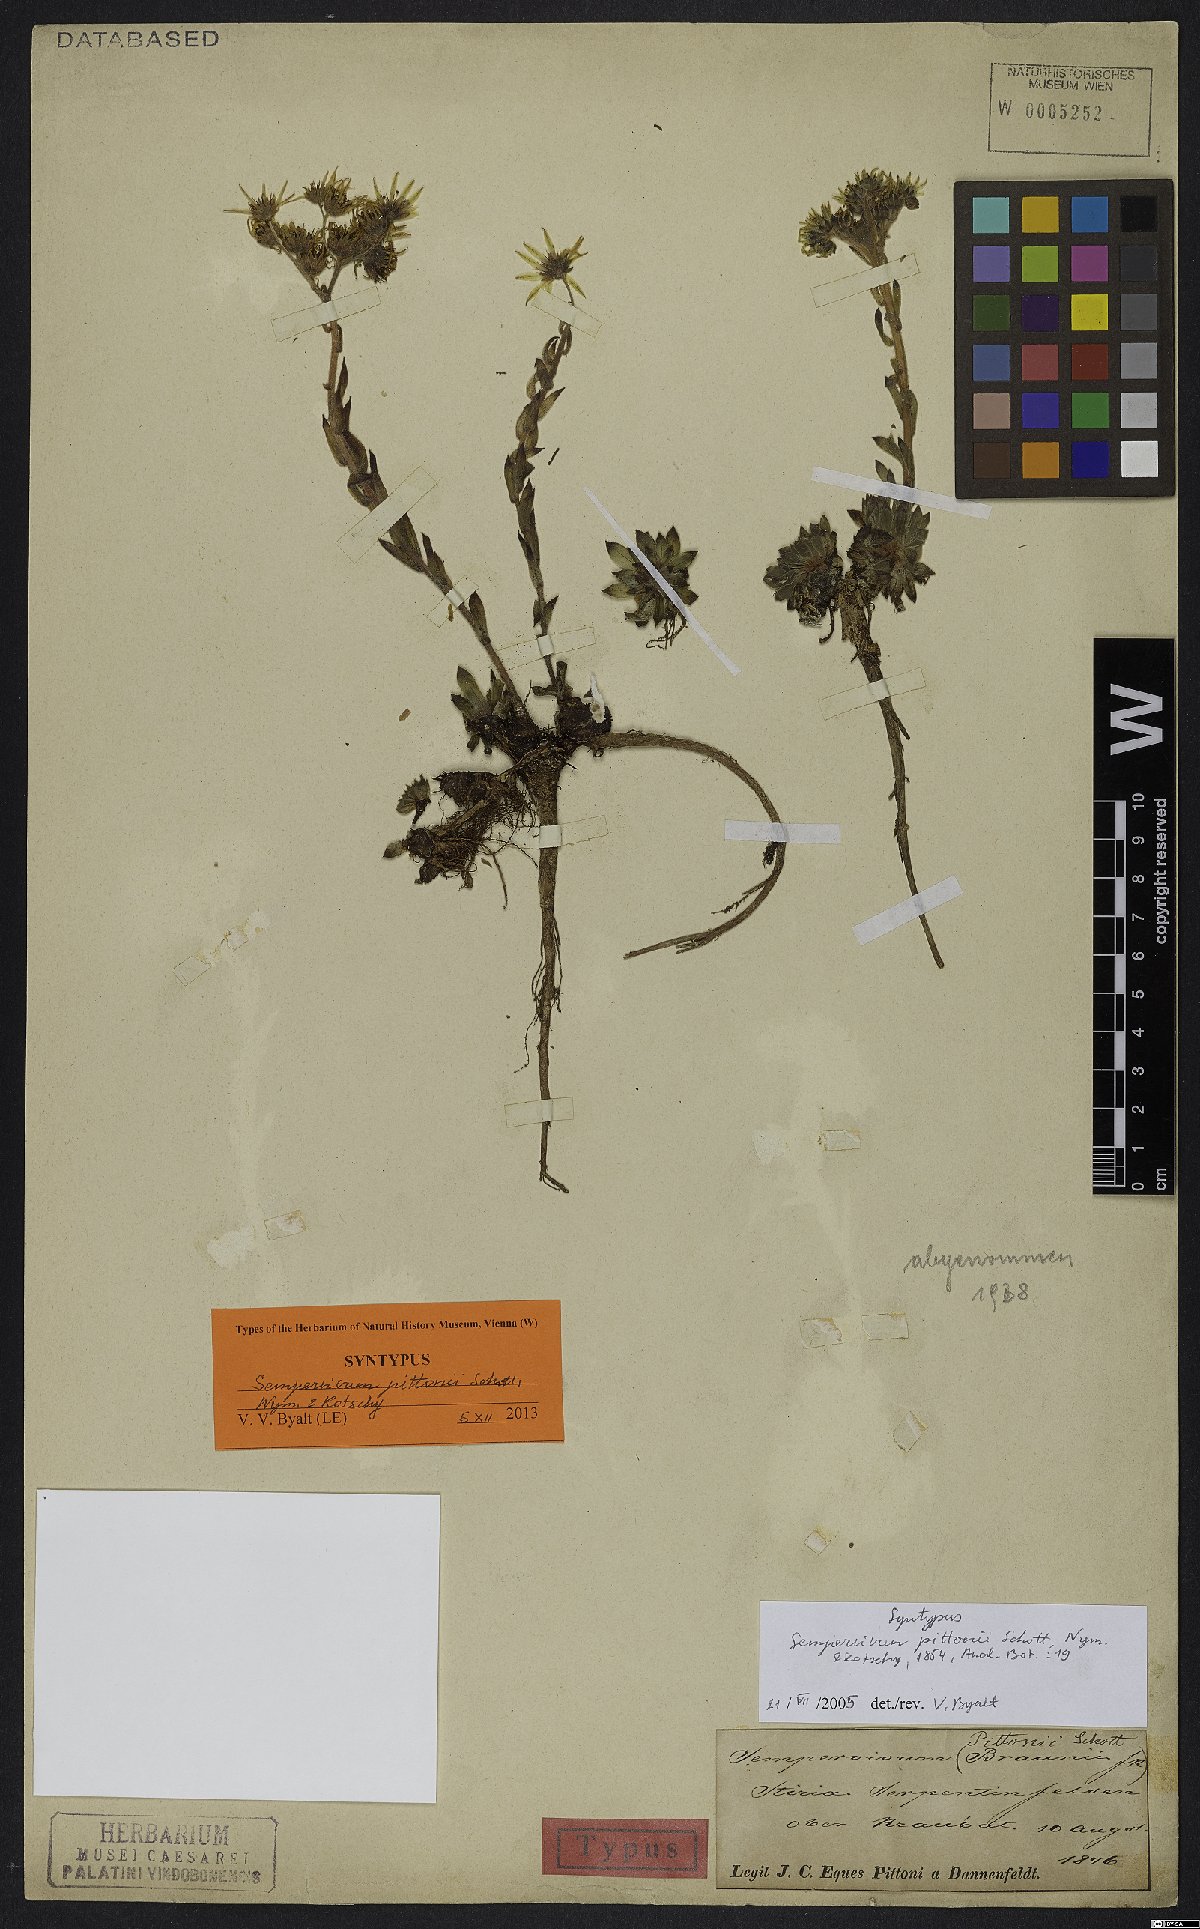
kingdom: Plantae
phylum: Tracheophyta
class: Magnoliopsida
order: Saxifragales
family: Crassulaceae
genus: Sempervivum
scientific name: Sempervivum pittonii
